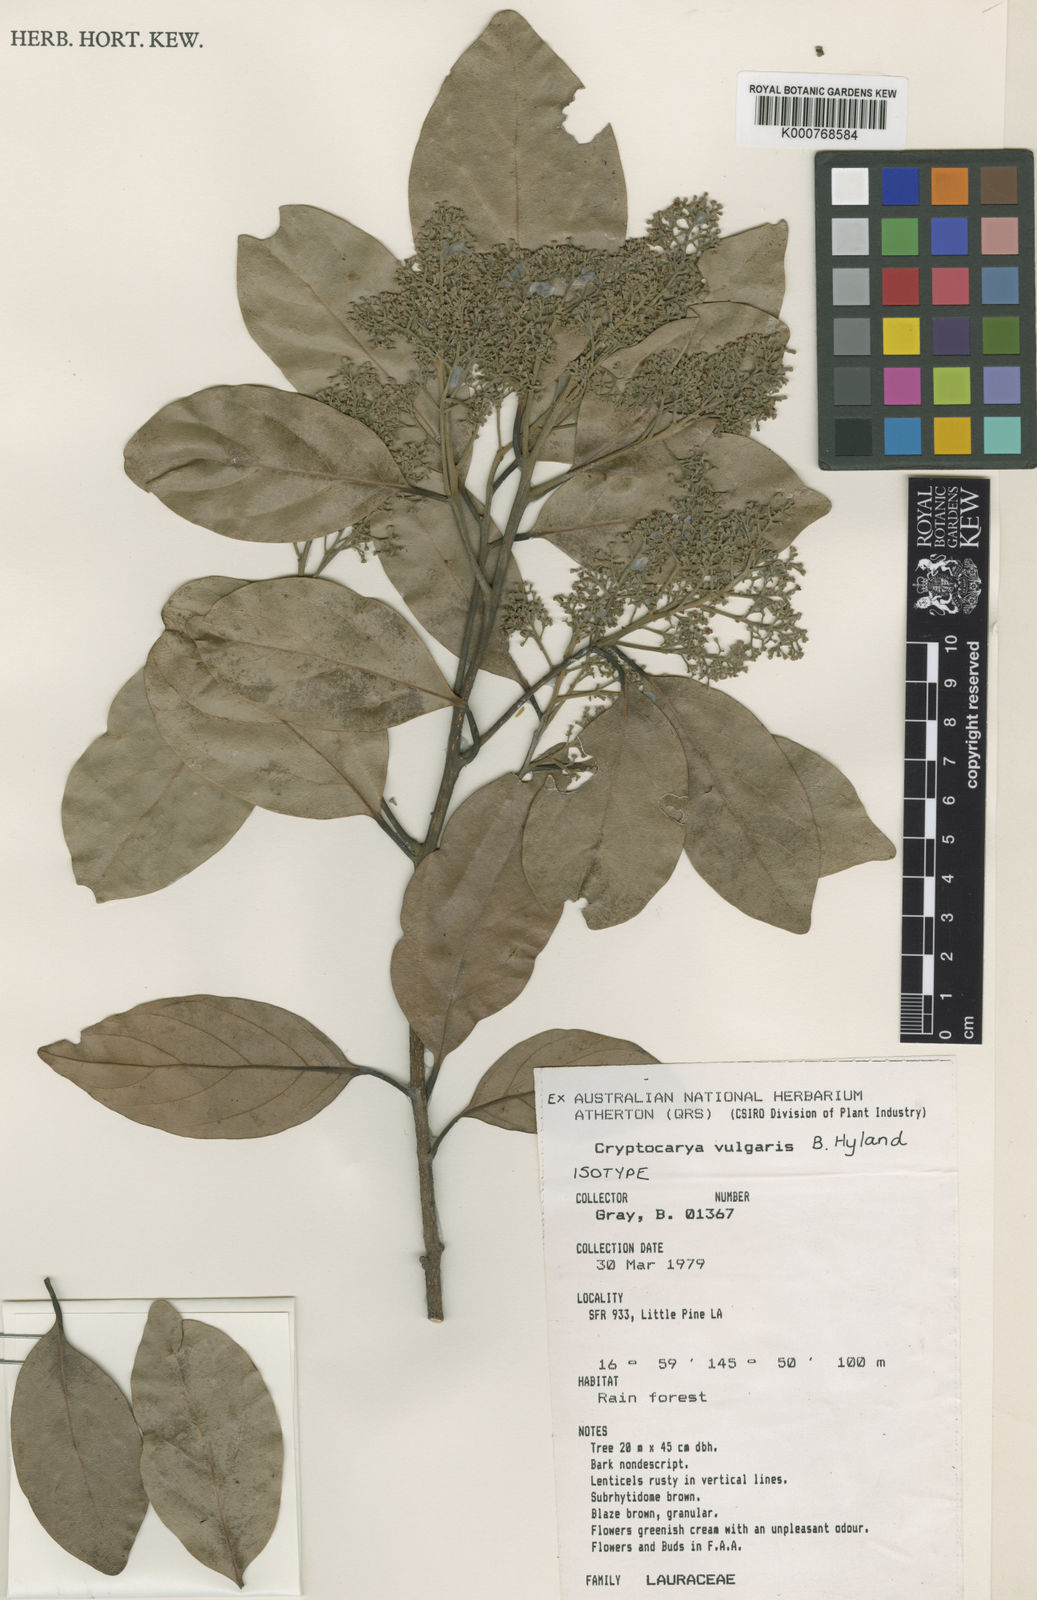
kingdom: Plantae
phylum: Tracheophyta
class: Magnoliopsida
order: Laurales
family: Lauraceae
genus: Cryptocarya
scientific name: Cryptocarya vulgaris
